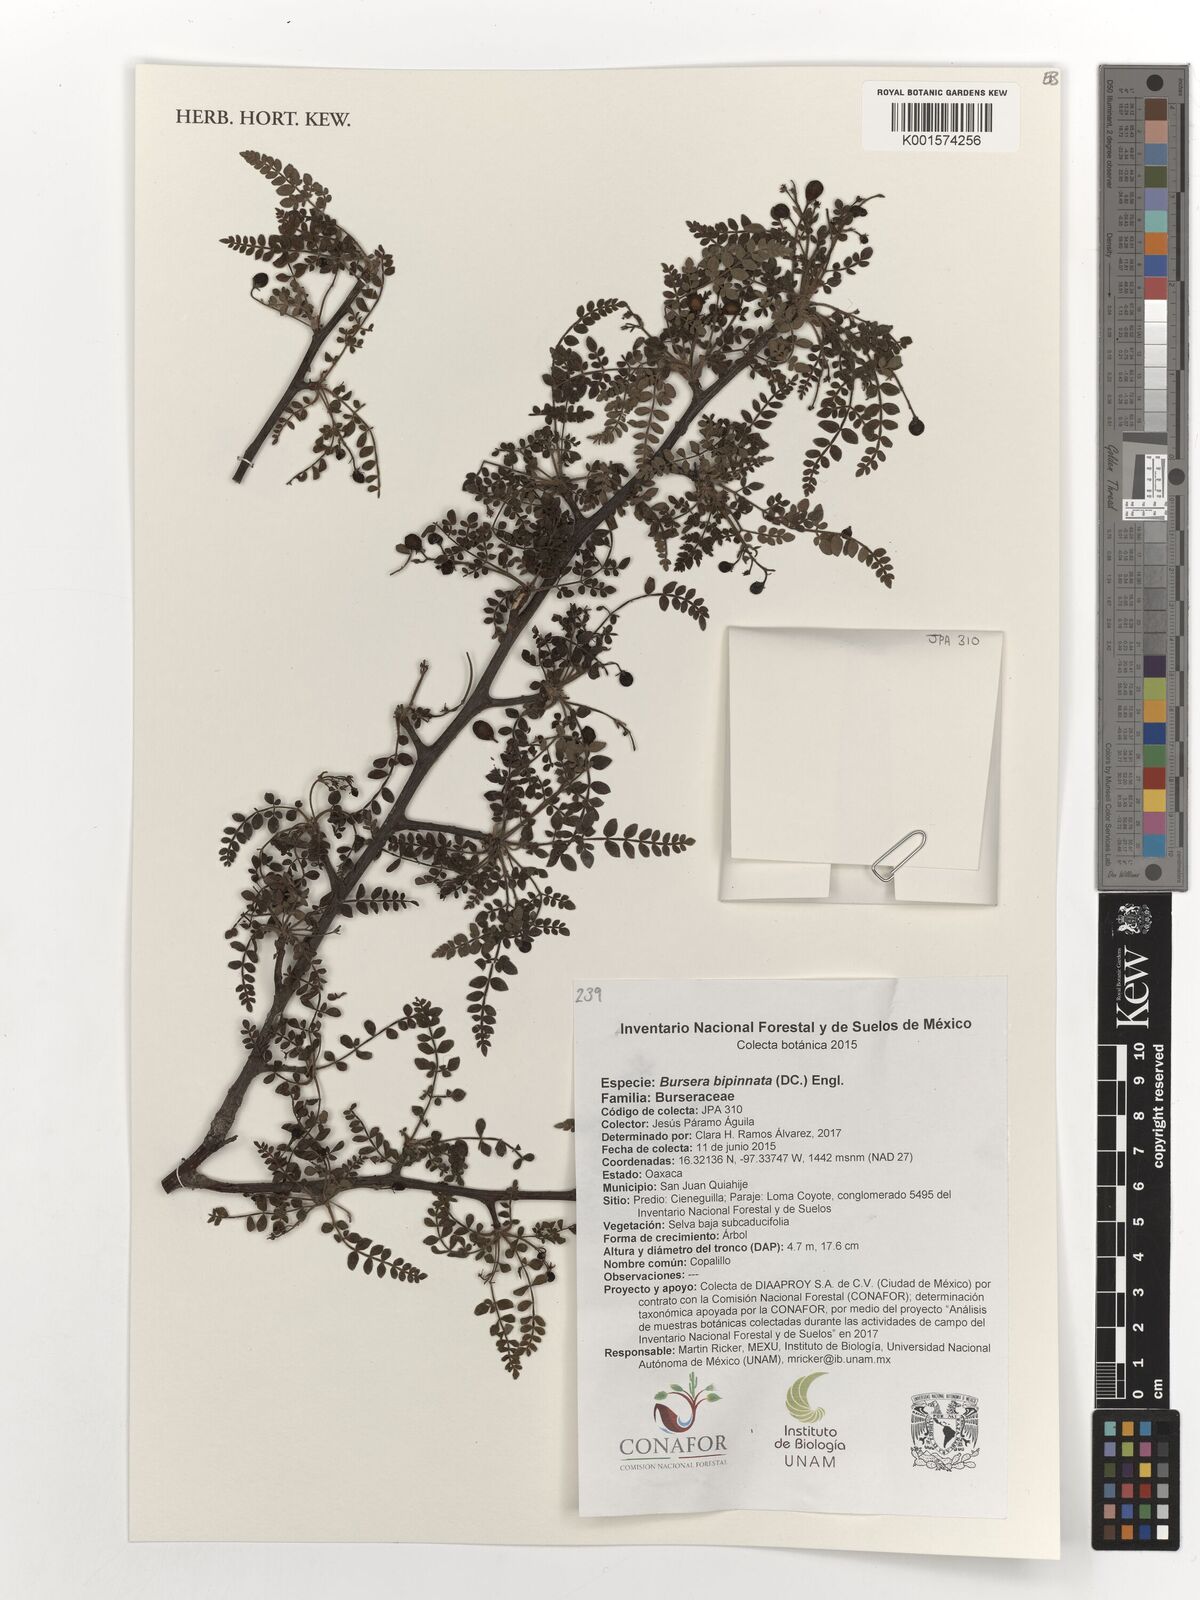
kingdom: Plantae
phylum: Tracheophyta
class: Magnoliopsida
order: Sapindales
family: Burseraceae
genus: Bursera
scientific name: Bursera bipinnata
